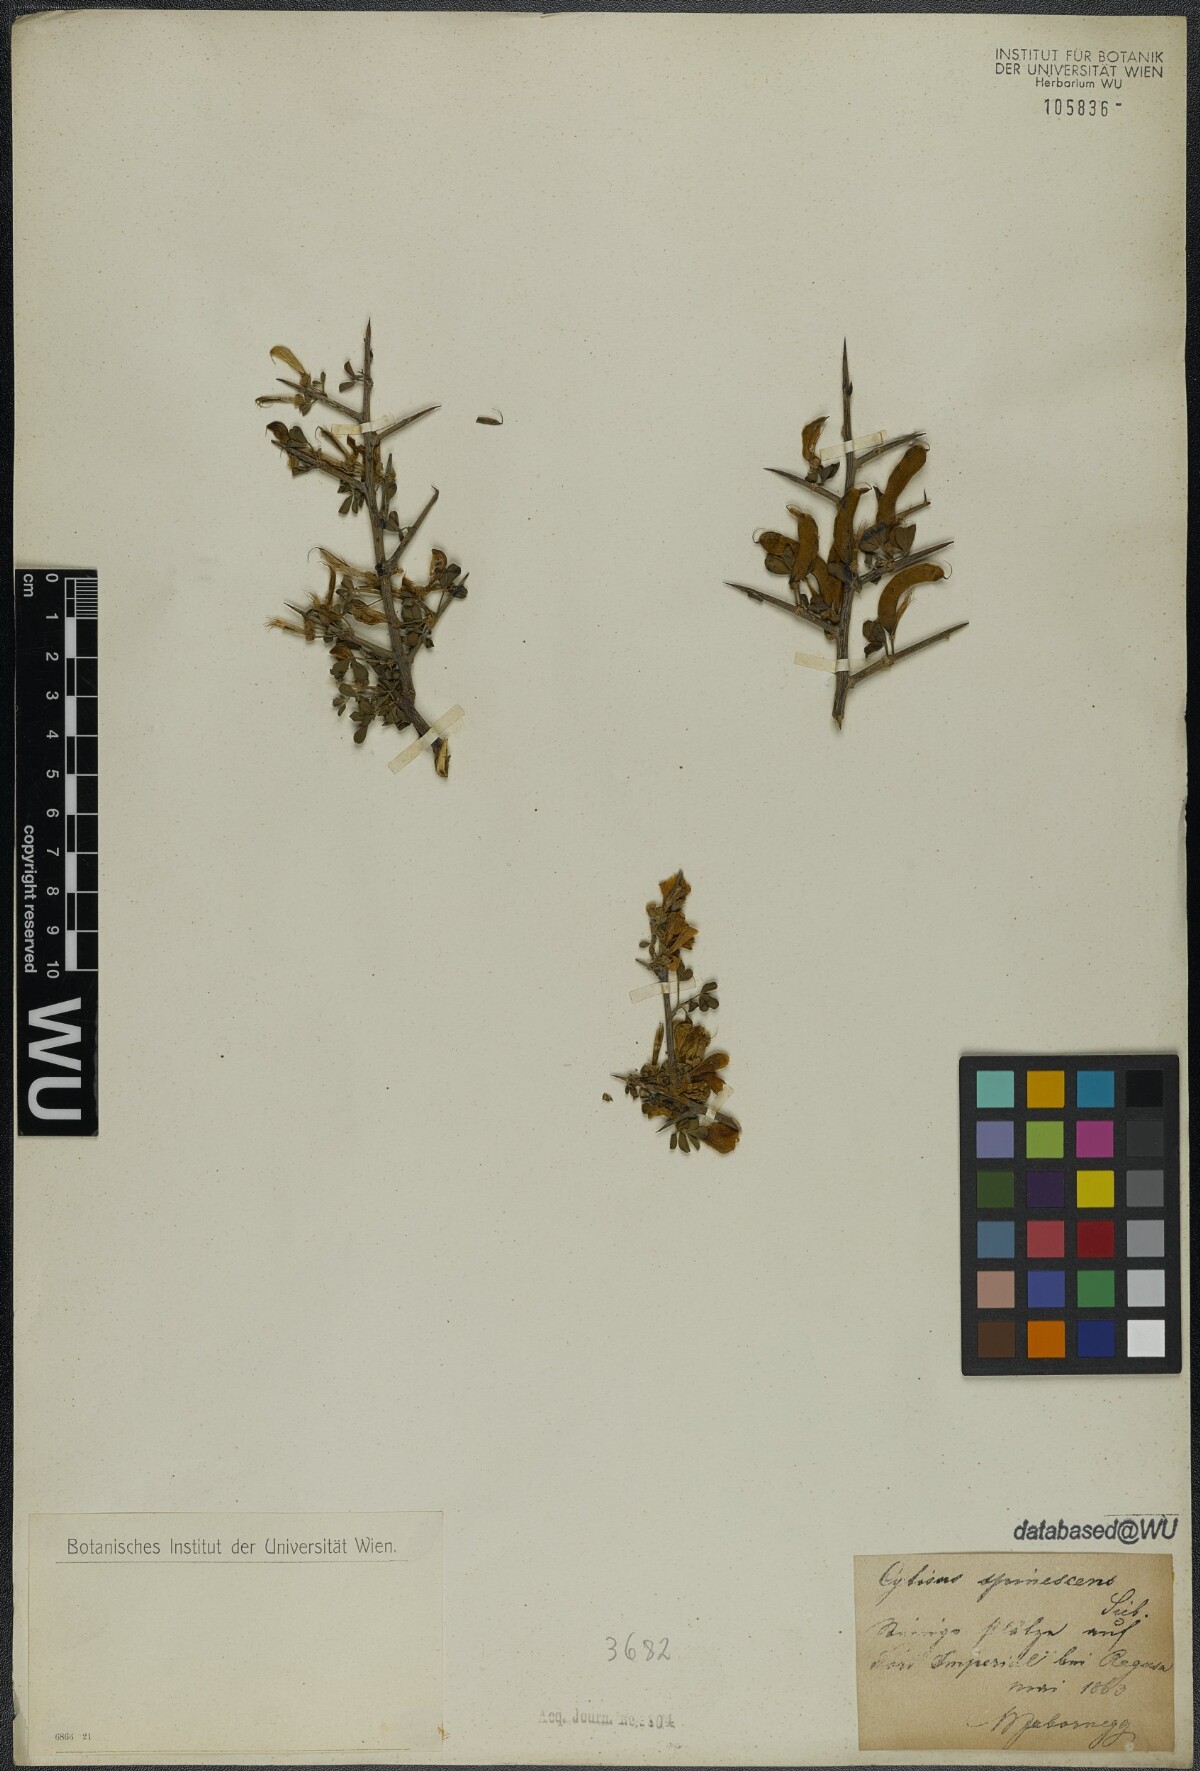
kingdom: Plantae
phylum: Tracheophyta
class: Magnoliopsida
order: Fabales
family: Fabaceae
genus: Chamaecytisus
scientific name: Chamaecytisus spinescens
